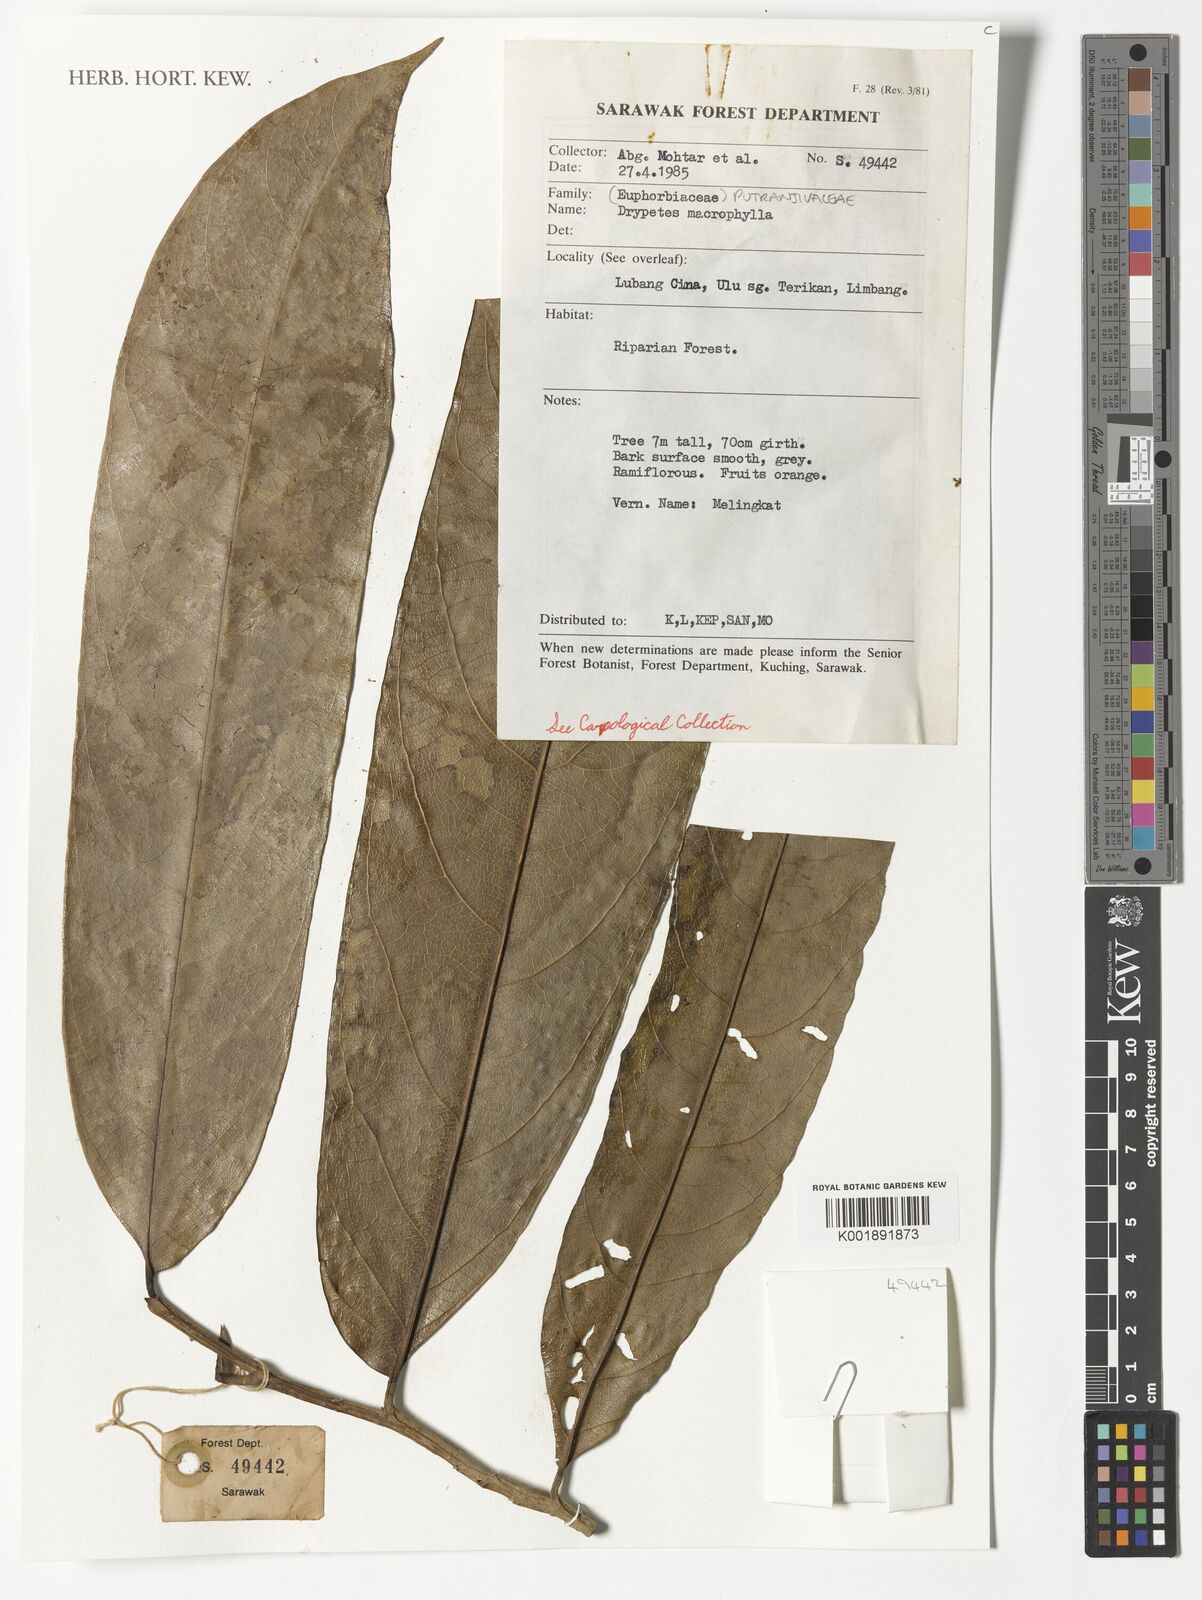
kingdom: Plantae
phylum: Tracheophyta
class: Magnoliopsida
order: Malpighiales
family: Putranjivaceae
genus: Drypetes
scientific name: Drypetes
